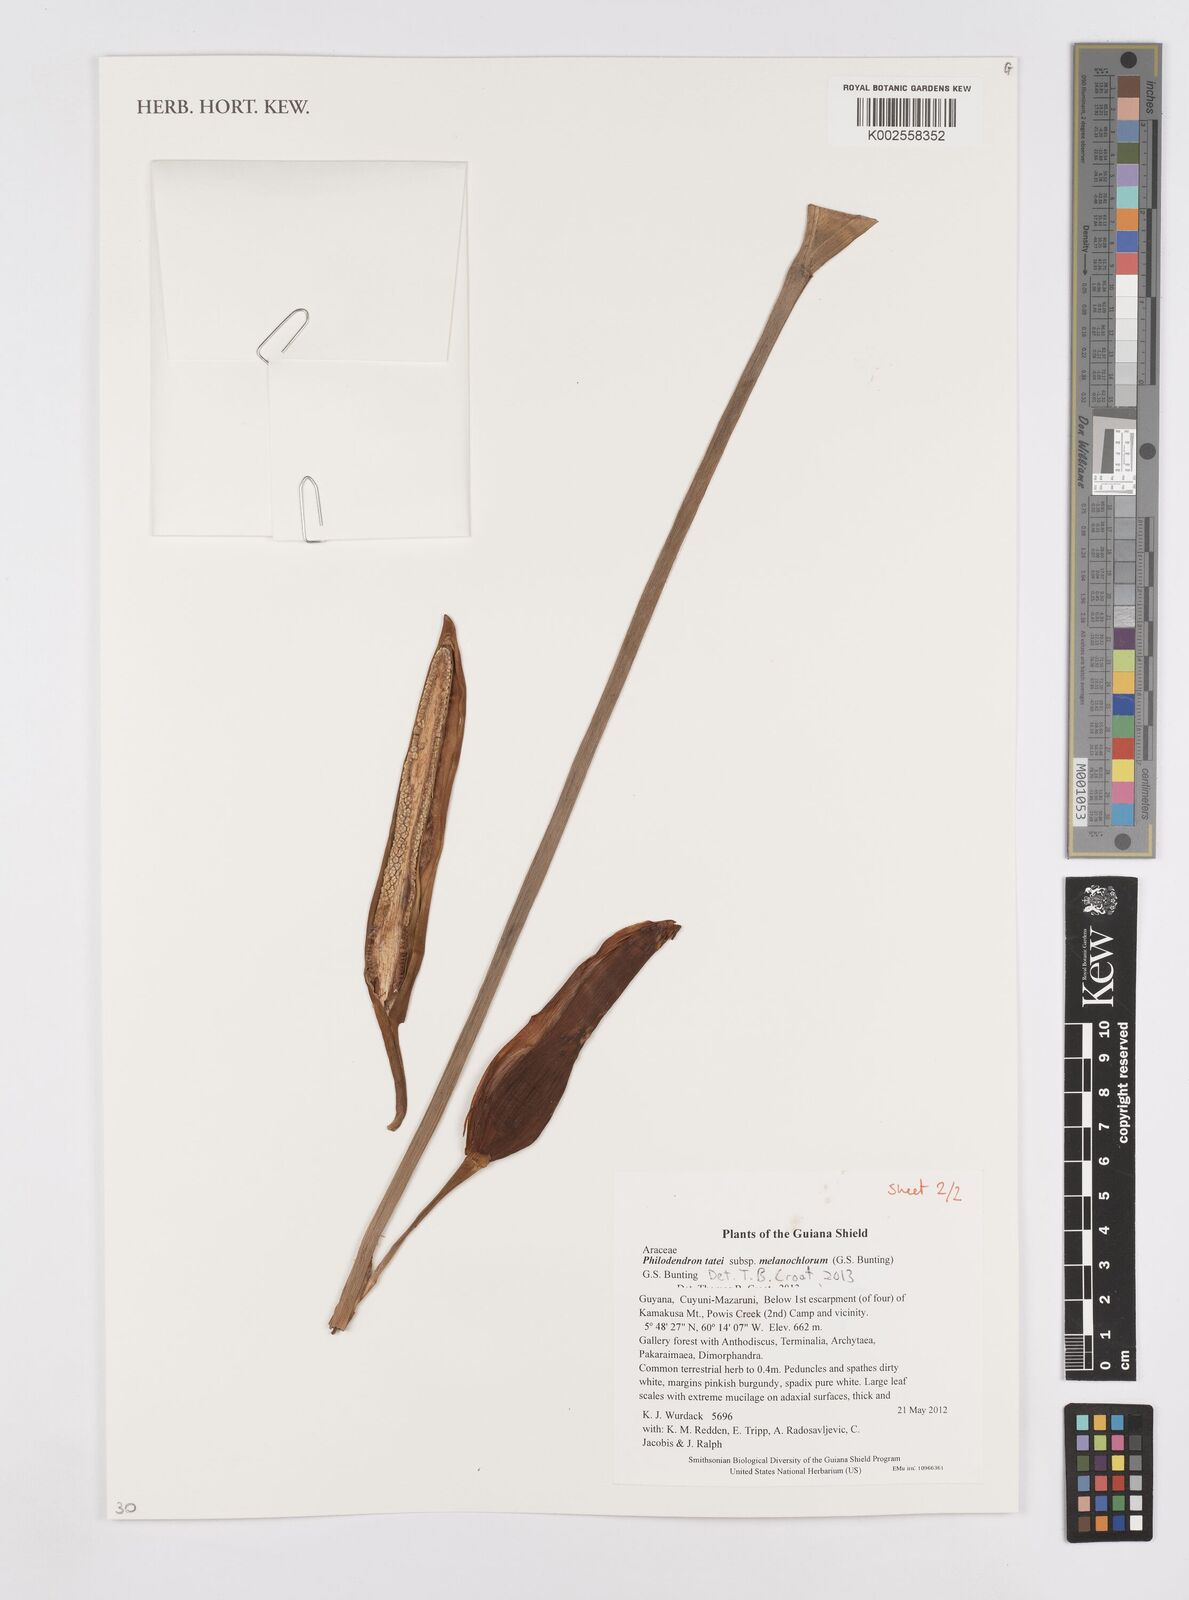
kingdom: Plantae
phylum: Tracheophyta
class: Liliopsida
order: Alismatales
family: Araceae
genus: Philodendron
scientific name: Philodendron tatei
